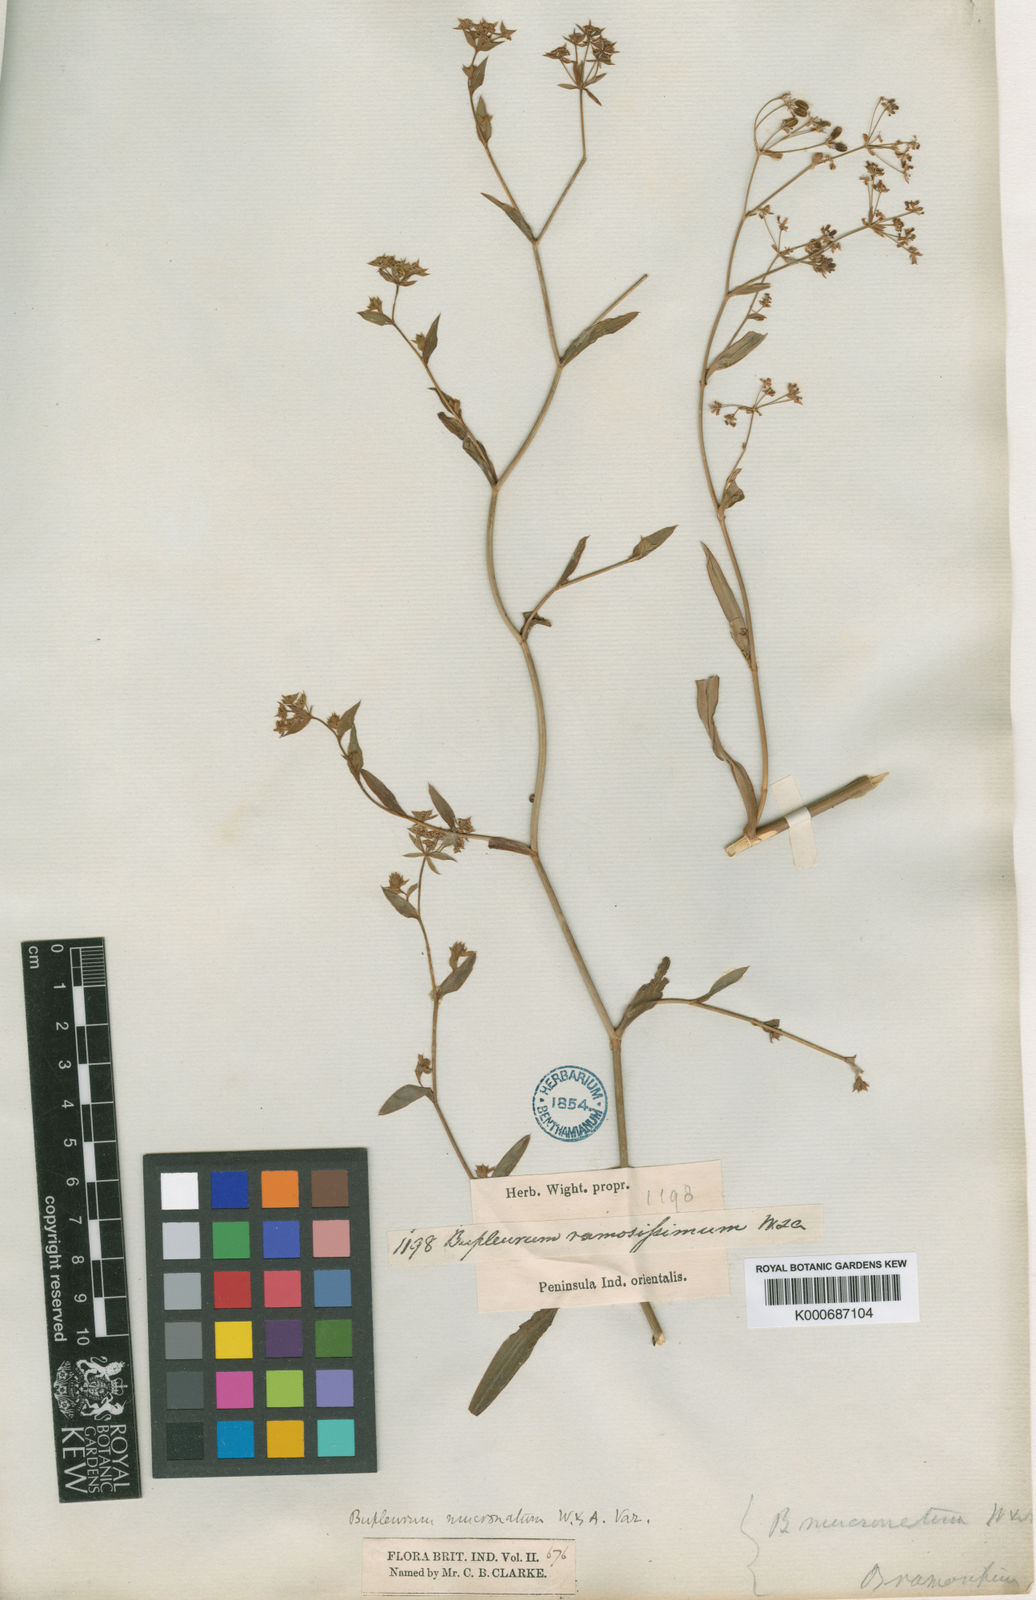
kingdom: Plantae
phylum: Tracheophyta
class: Magnoliopsida
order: Apiales
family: Apiaceae
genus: Bupleurum
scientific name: Bupleurum ramosissimum
